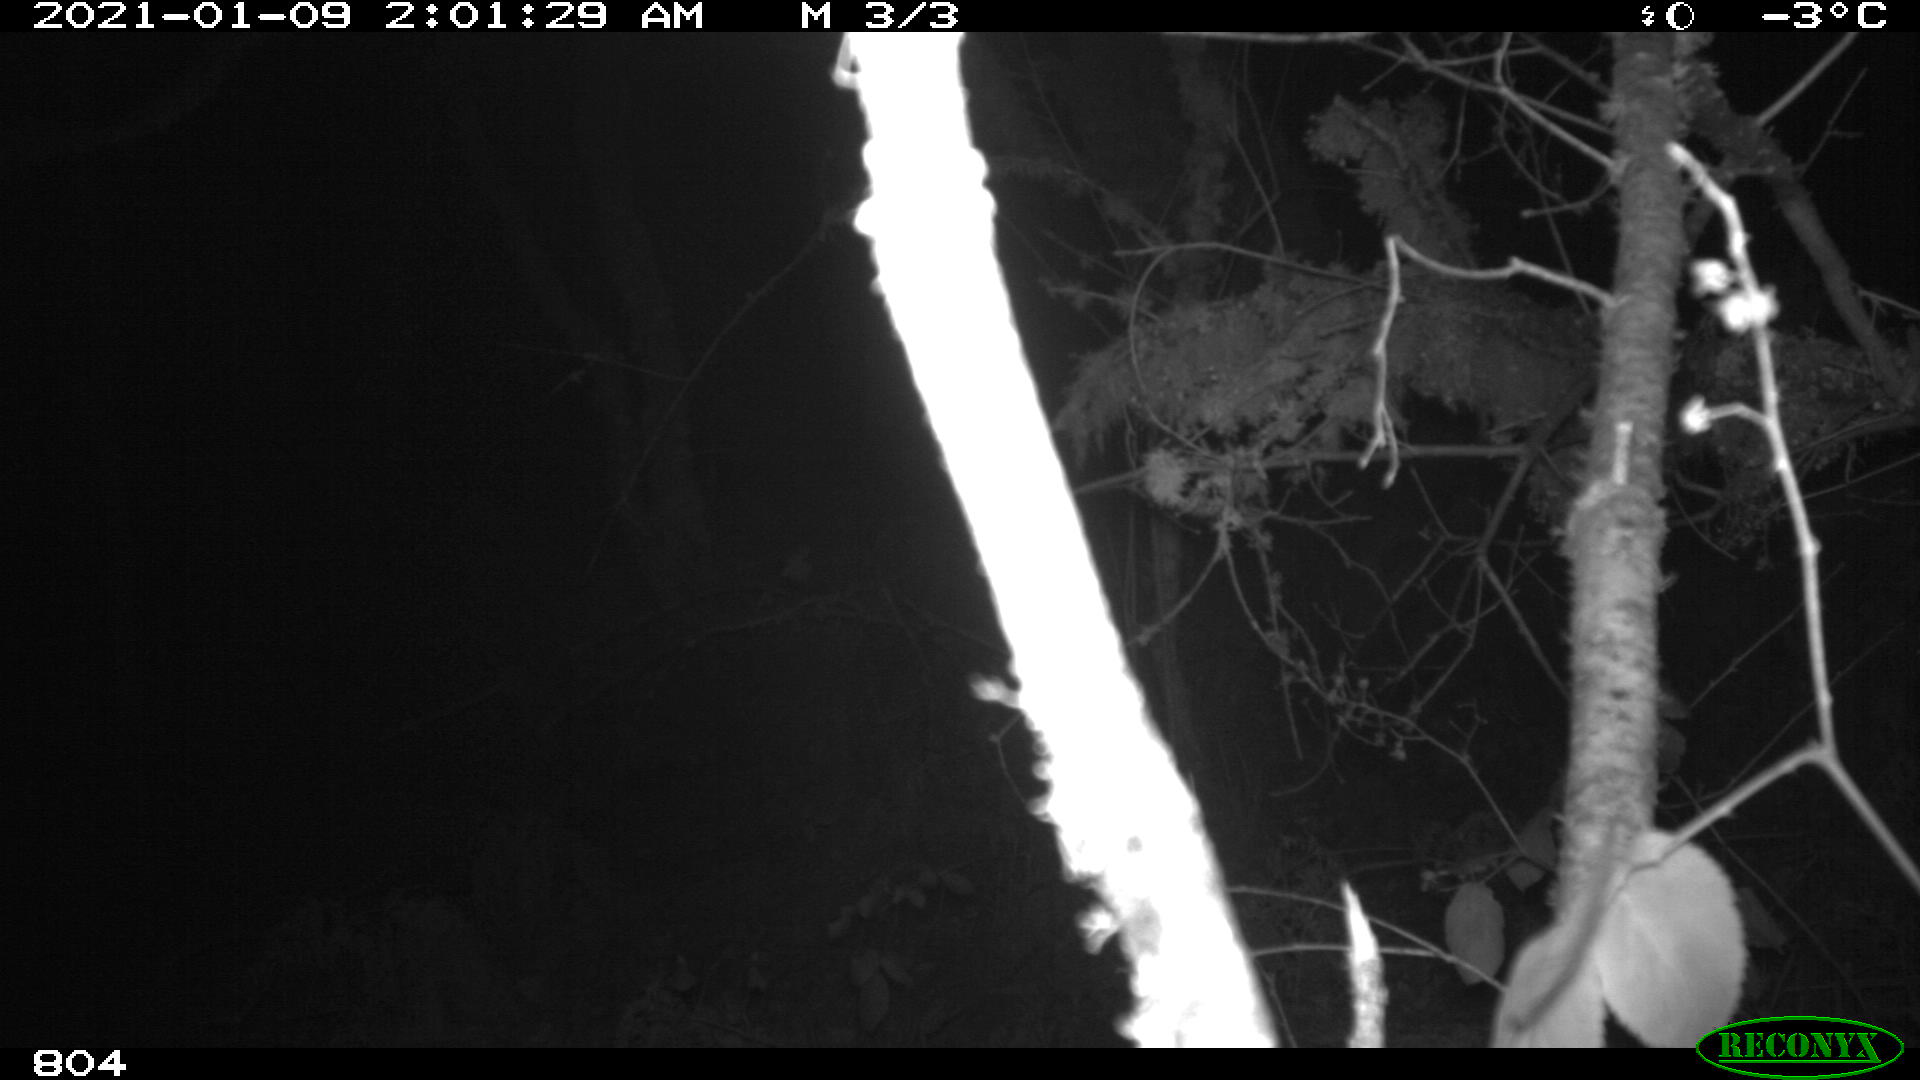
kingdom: Animalia
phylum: Chordata
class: Mammalia
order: Artiodactyla
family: Cervidae
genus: Capreolus
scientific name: Capreolus capreolus
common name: Western roe deer
